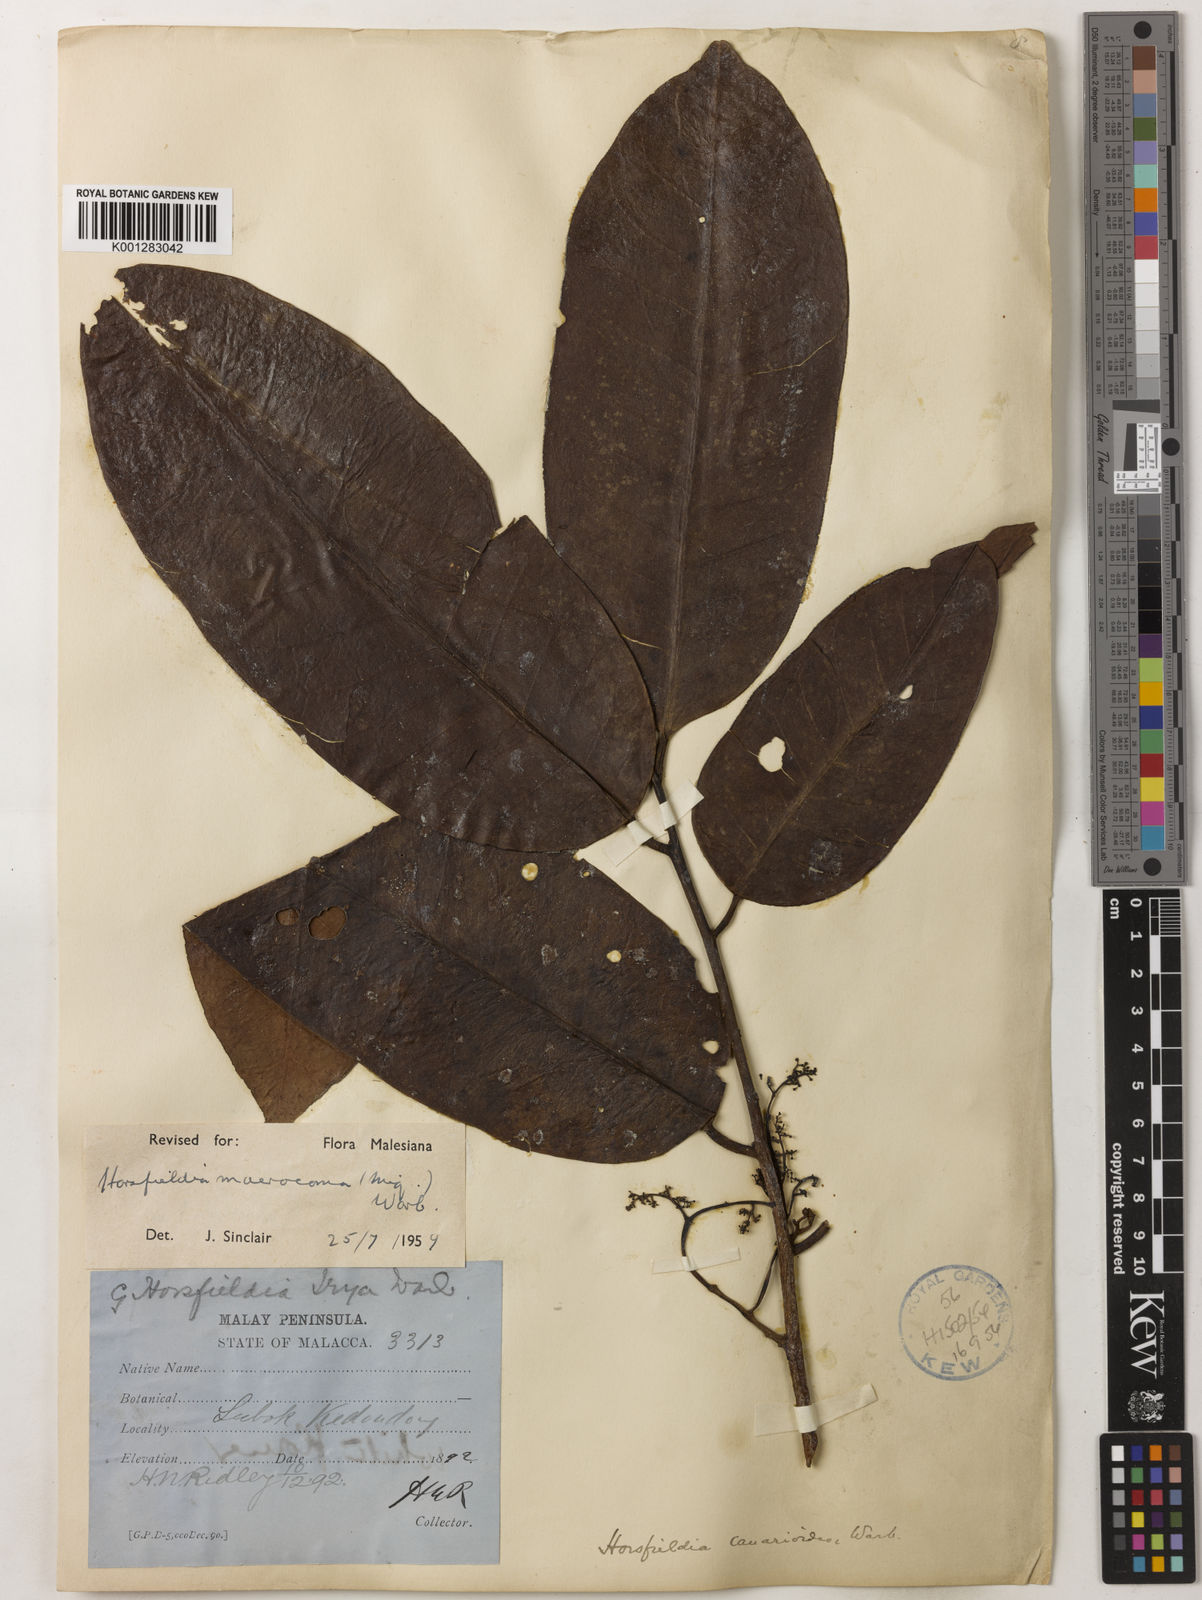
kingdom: Plantae
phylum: Tracheophyta
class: Magnoliopsida
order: Magnoliales
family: Myristicaceae
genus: Endocomia
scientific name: Endocomia canarioides
